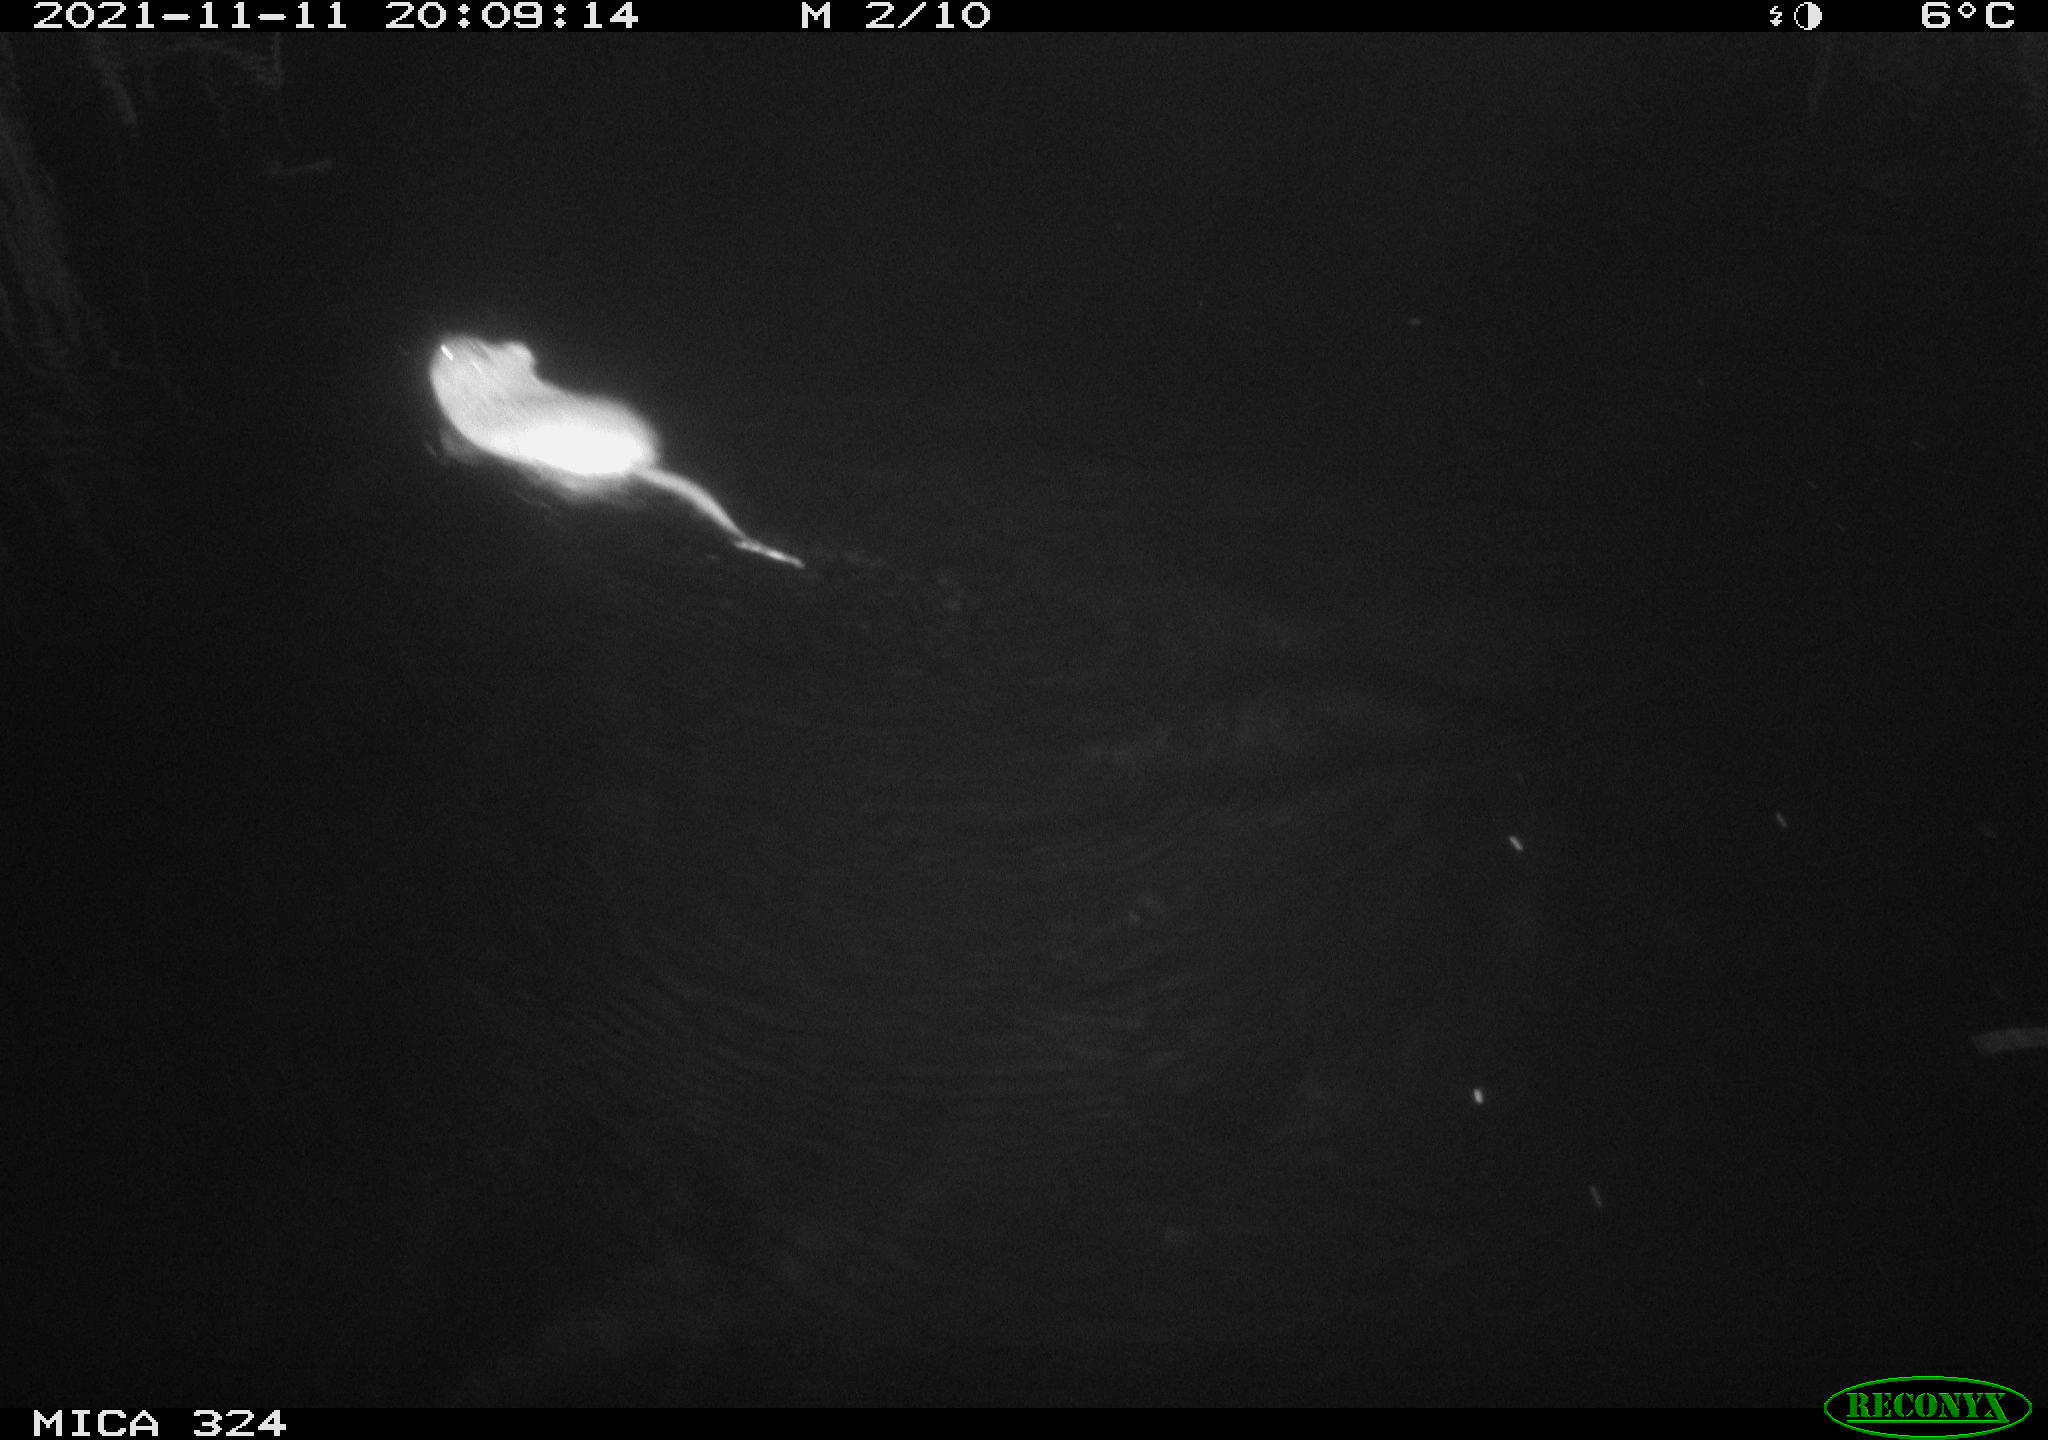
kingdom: Animalia
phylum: Chordata
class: Mammalia
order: Rodentia
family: Cricetidae
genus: Ondatra
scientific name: Ondatra zibethicus
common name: Muskrat
